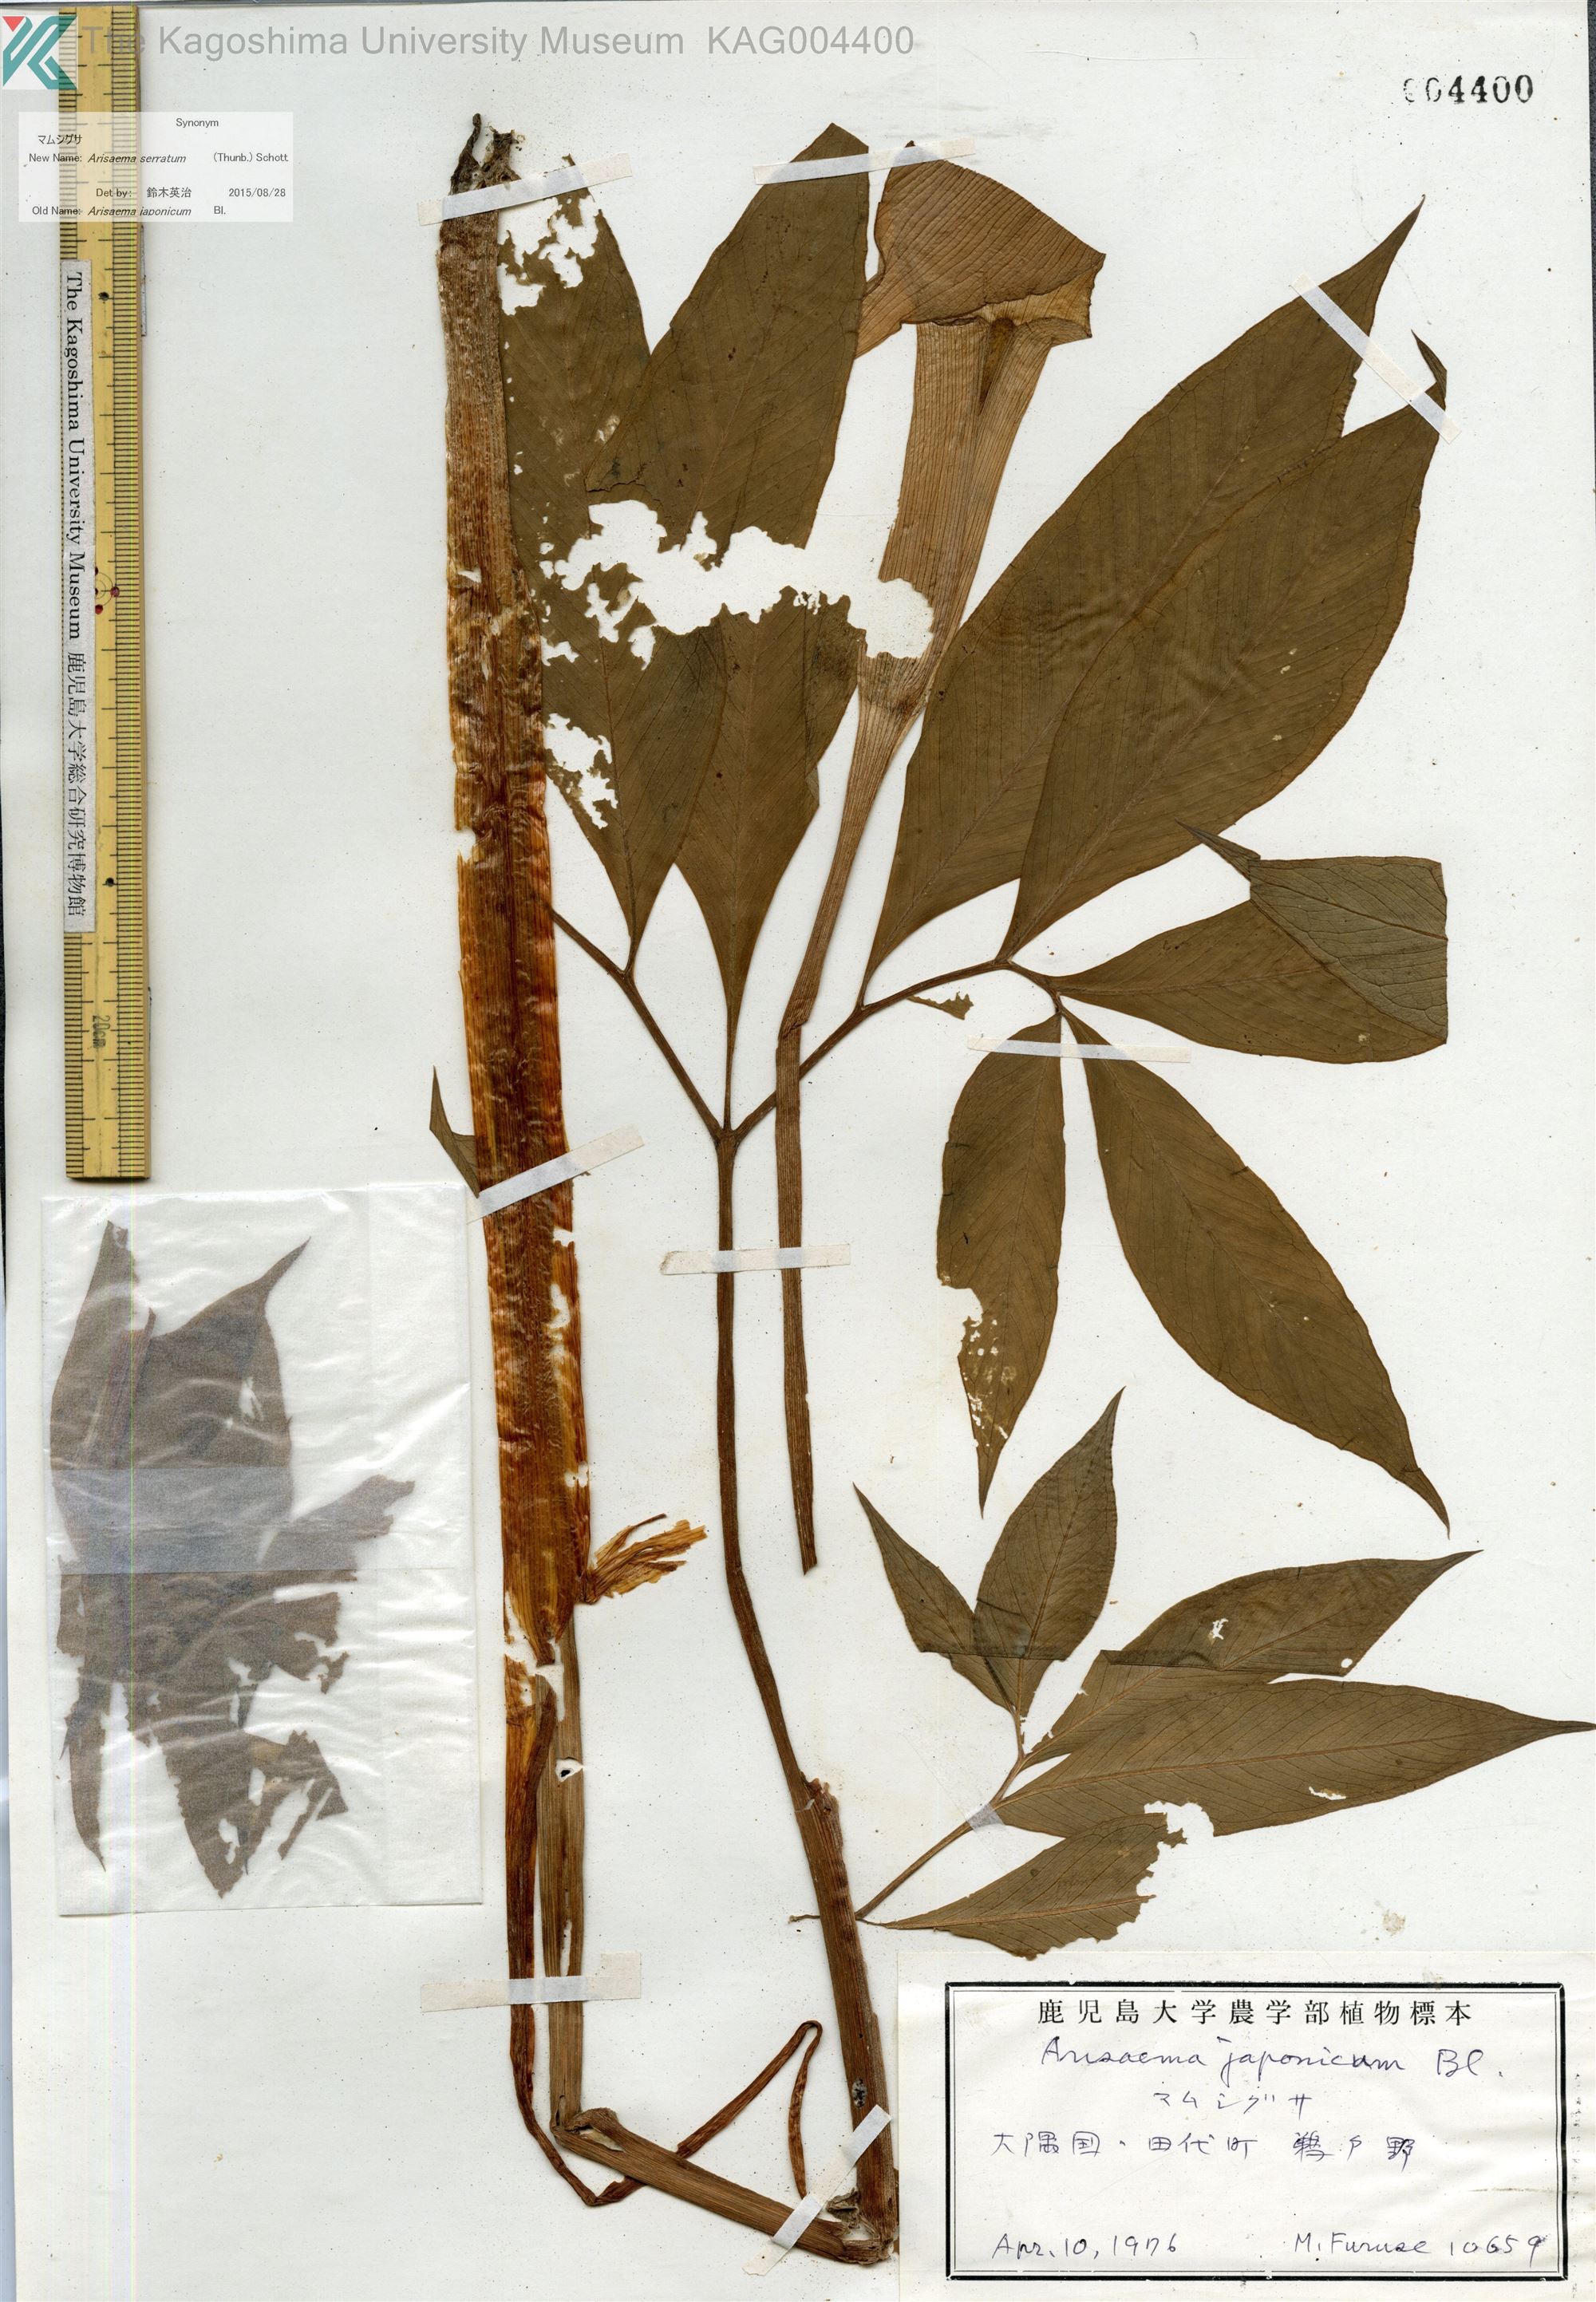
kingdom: Plantae
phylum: Tracheophyta
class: Liliopsida
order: Alismatales
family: Araceae
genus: Arisaema
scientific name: Arisaema serratum
